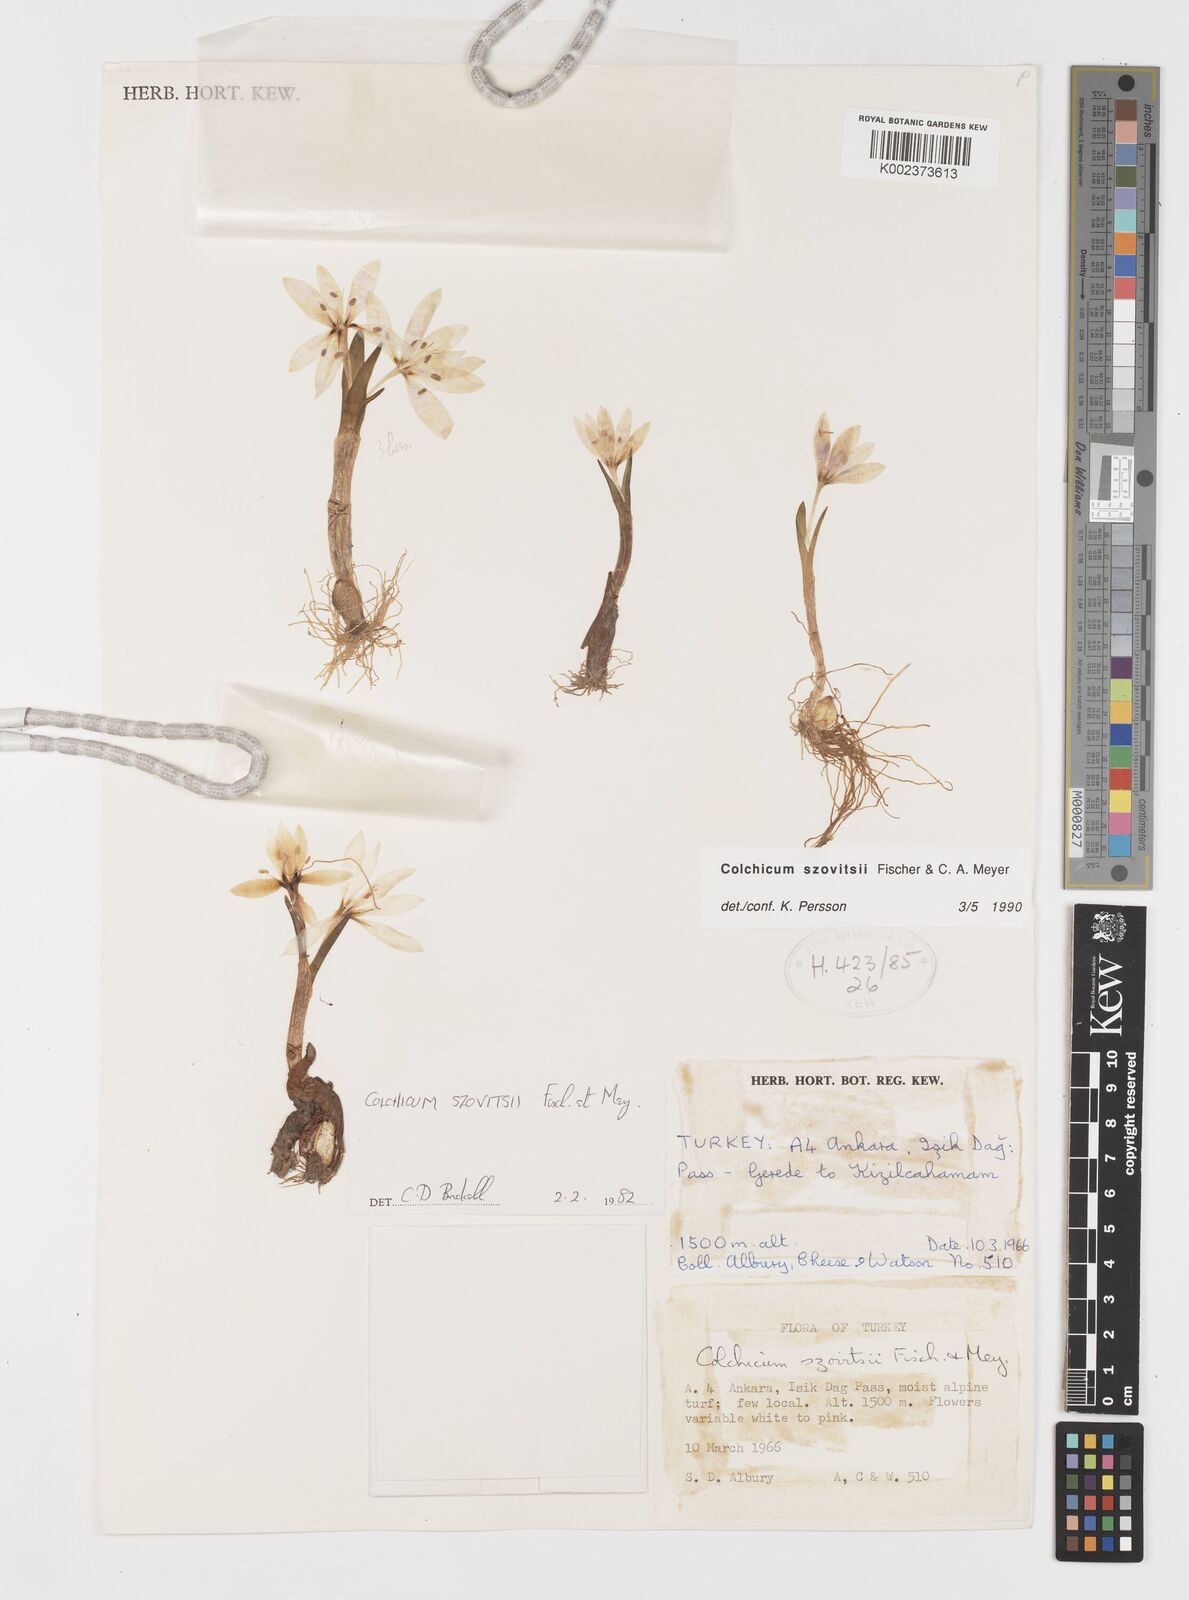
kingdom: Plantae
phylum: Tracheophyta
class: Liliopsida
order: Liliales
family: Colchicaceae
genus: Colchicum
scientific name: Colchicum szovitsii
